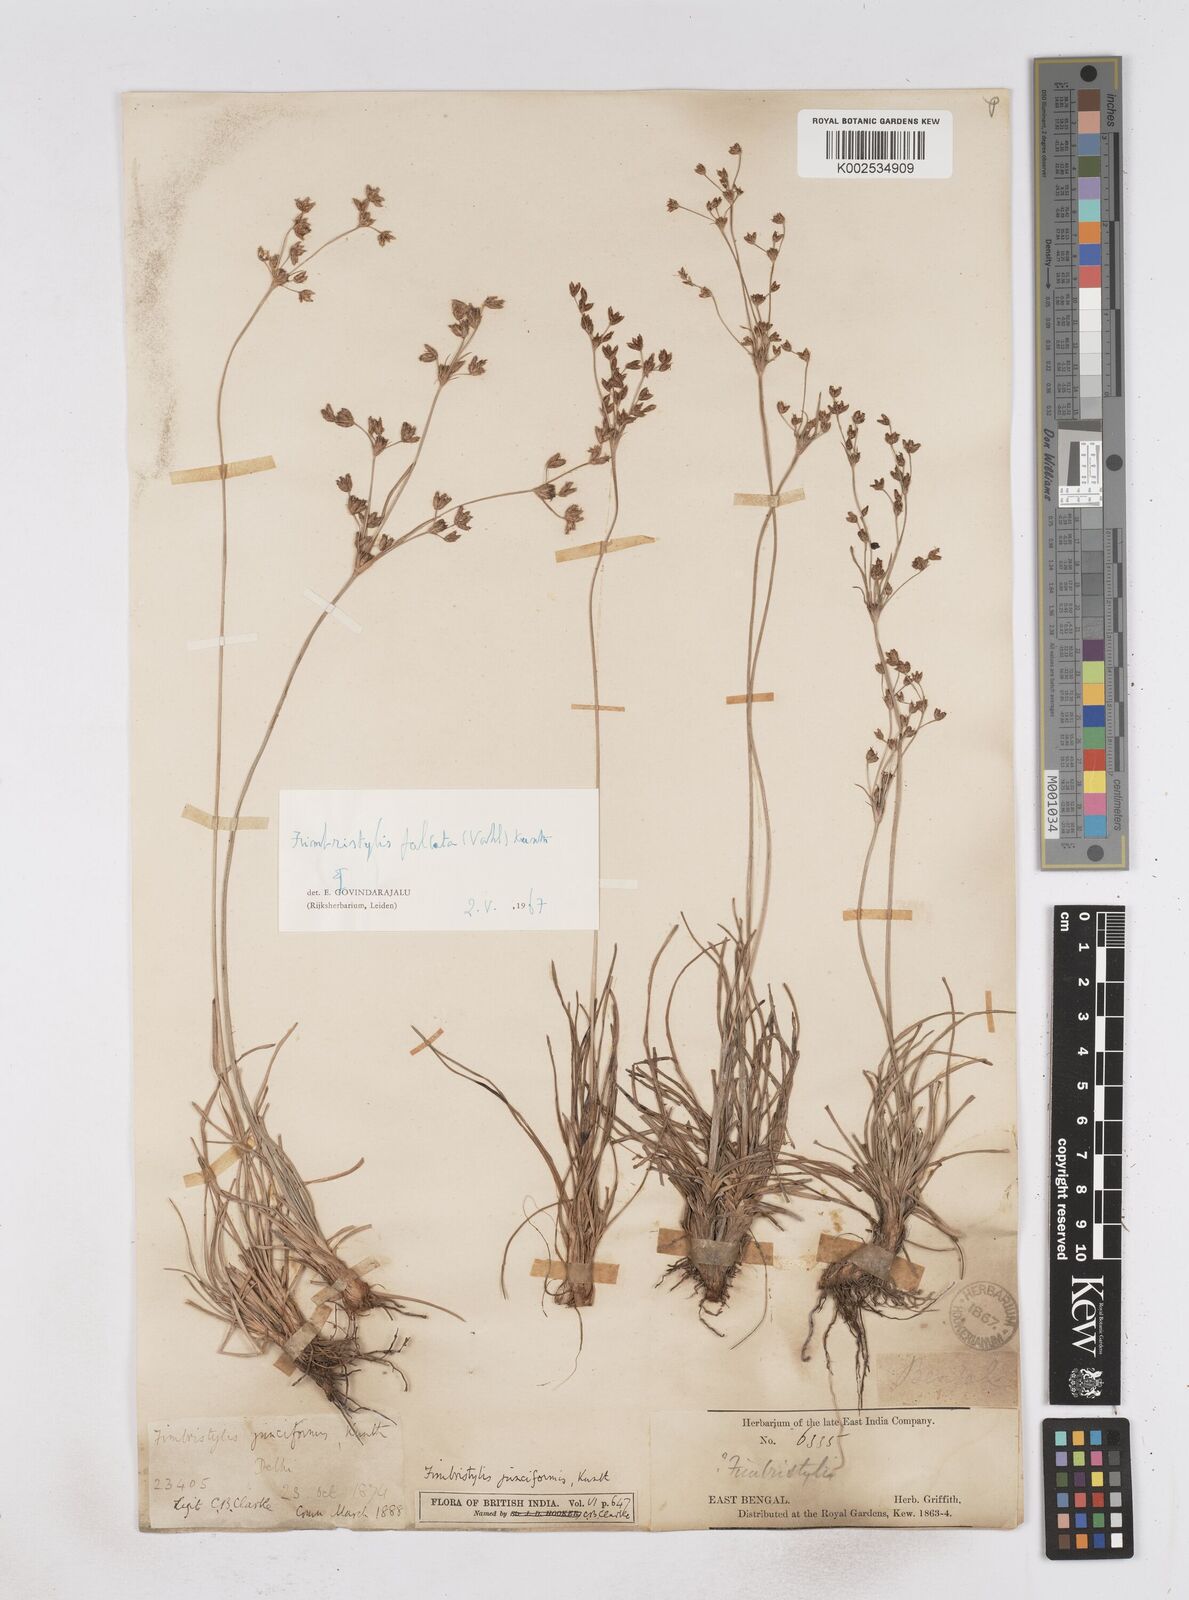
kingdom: Plantae
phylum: Tracheophyta
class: Liliopsida
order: Poales
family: Cyperaceae
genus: Fimbristylis
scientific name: Fimbristylis falcata
